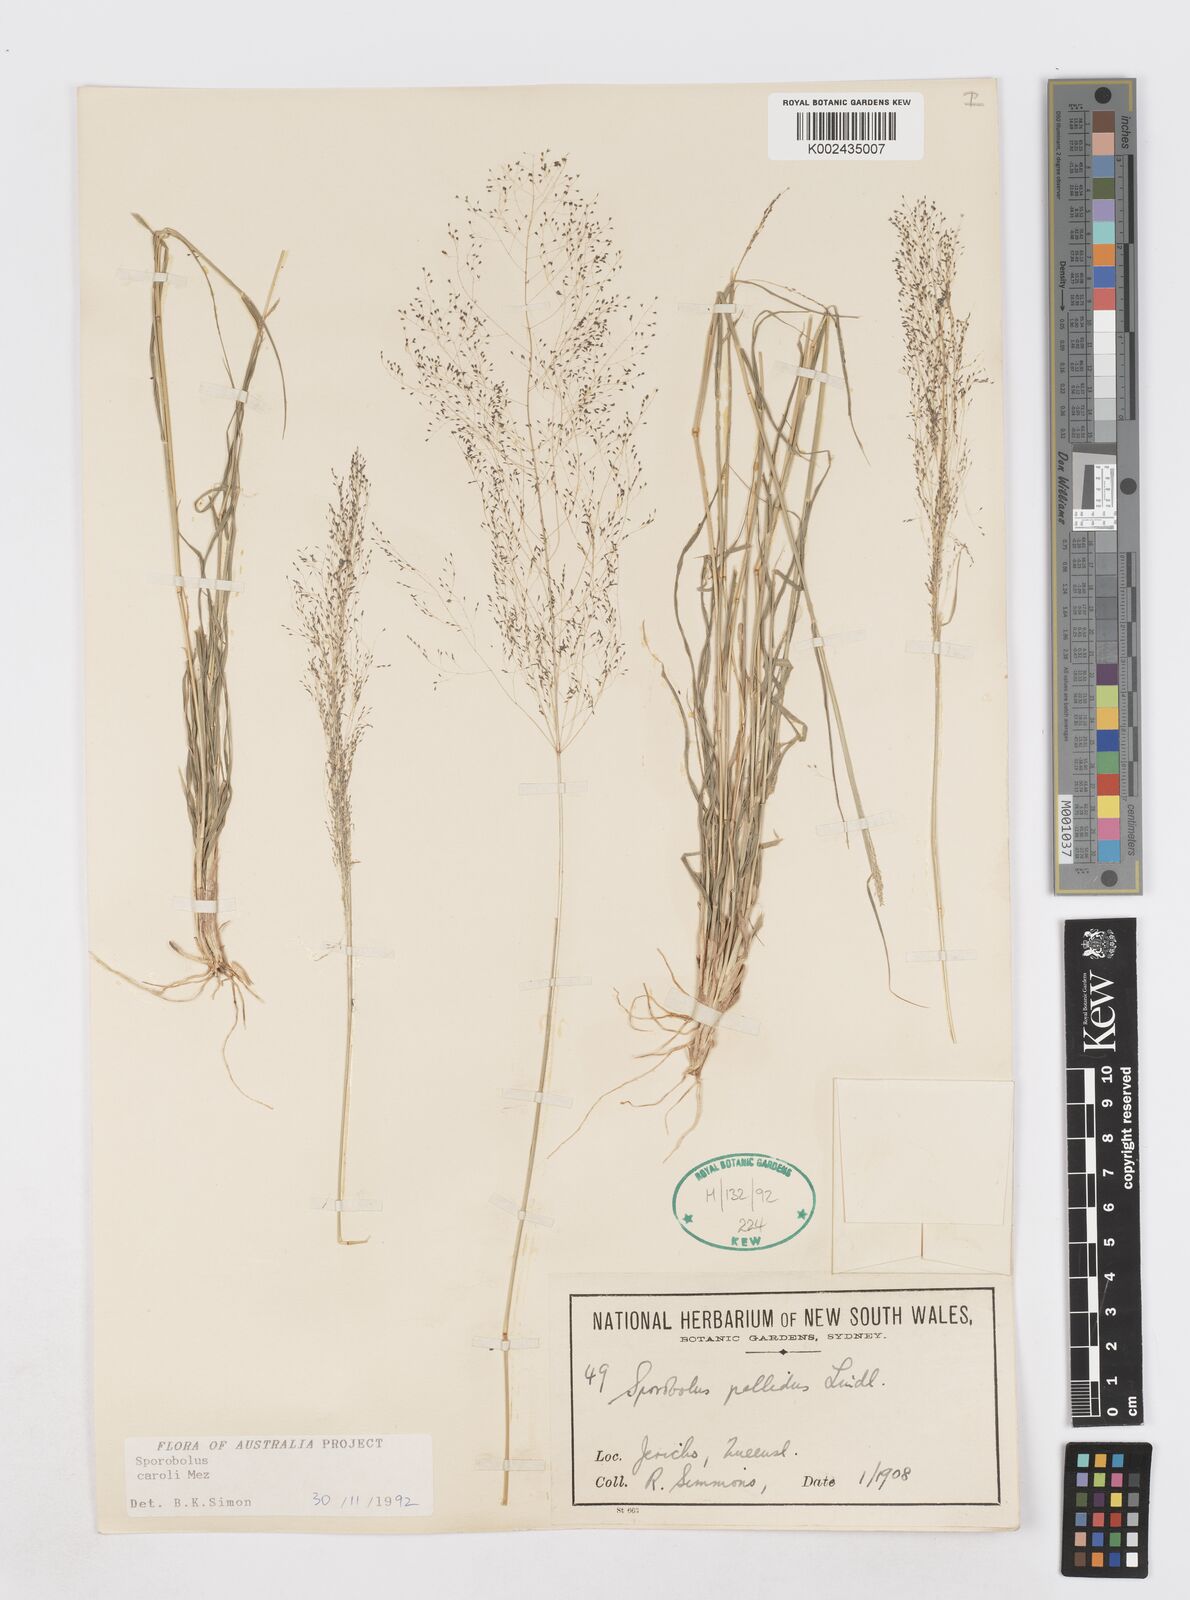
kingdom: Plantae
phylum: Tracheophyta
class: Liliopsida
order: Poales
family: Poaceae
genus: Sporobolus
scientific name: Sporobolus caroli
